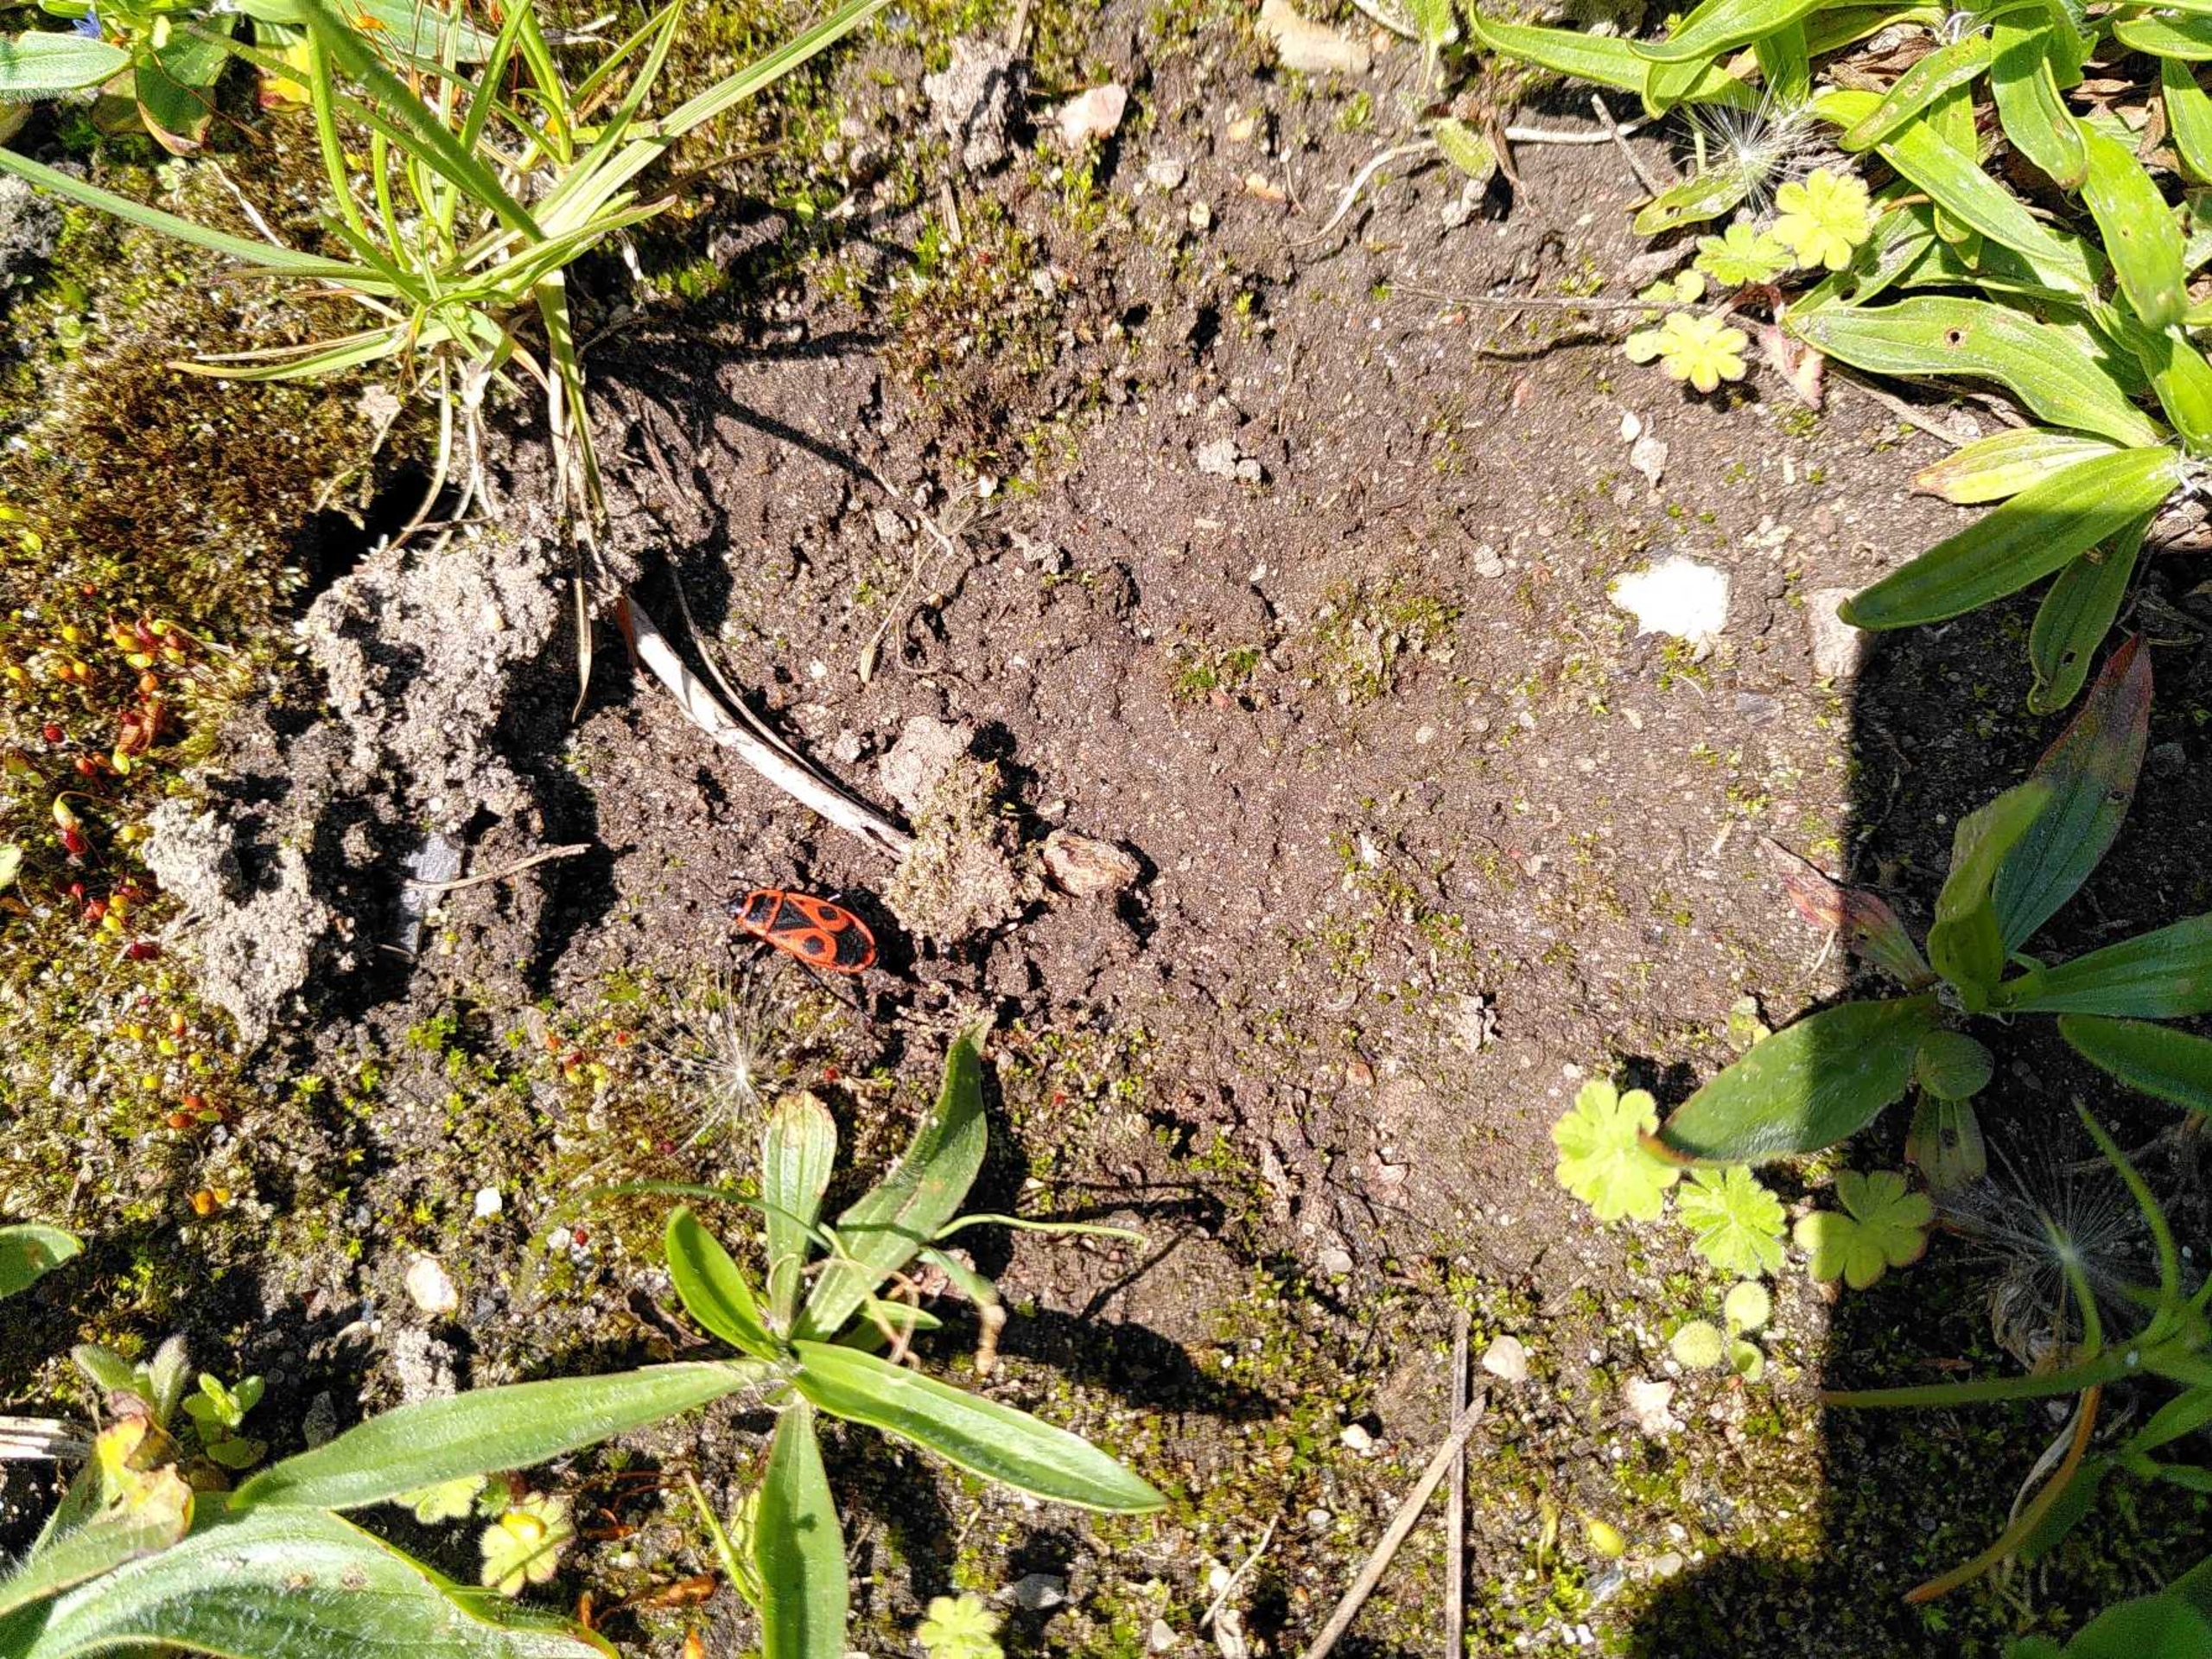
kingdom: Animalia
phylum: Arthropoda
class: Insecta
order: Hemiptera
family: Pyrrhocoridae
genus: Pyrrhocoris
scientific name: Pyrrhocoris apterus
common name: Ildtæge
